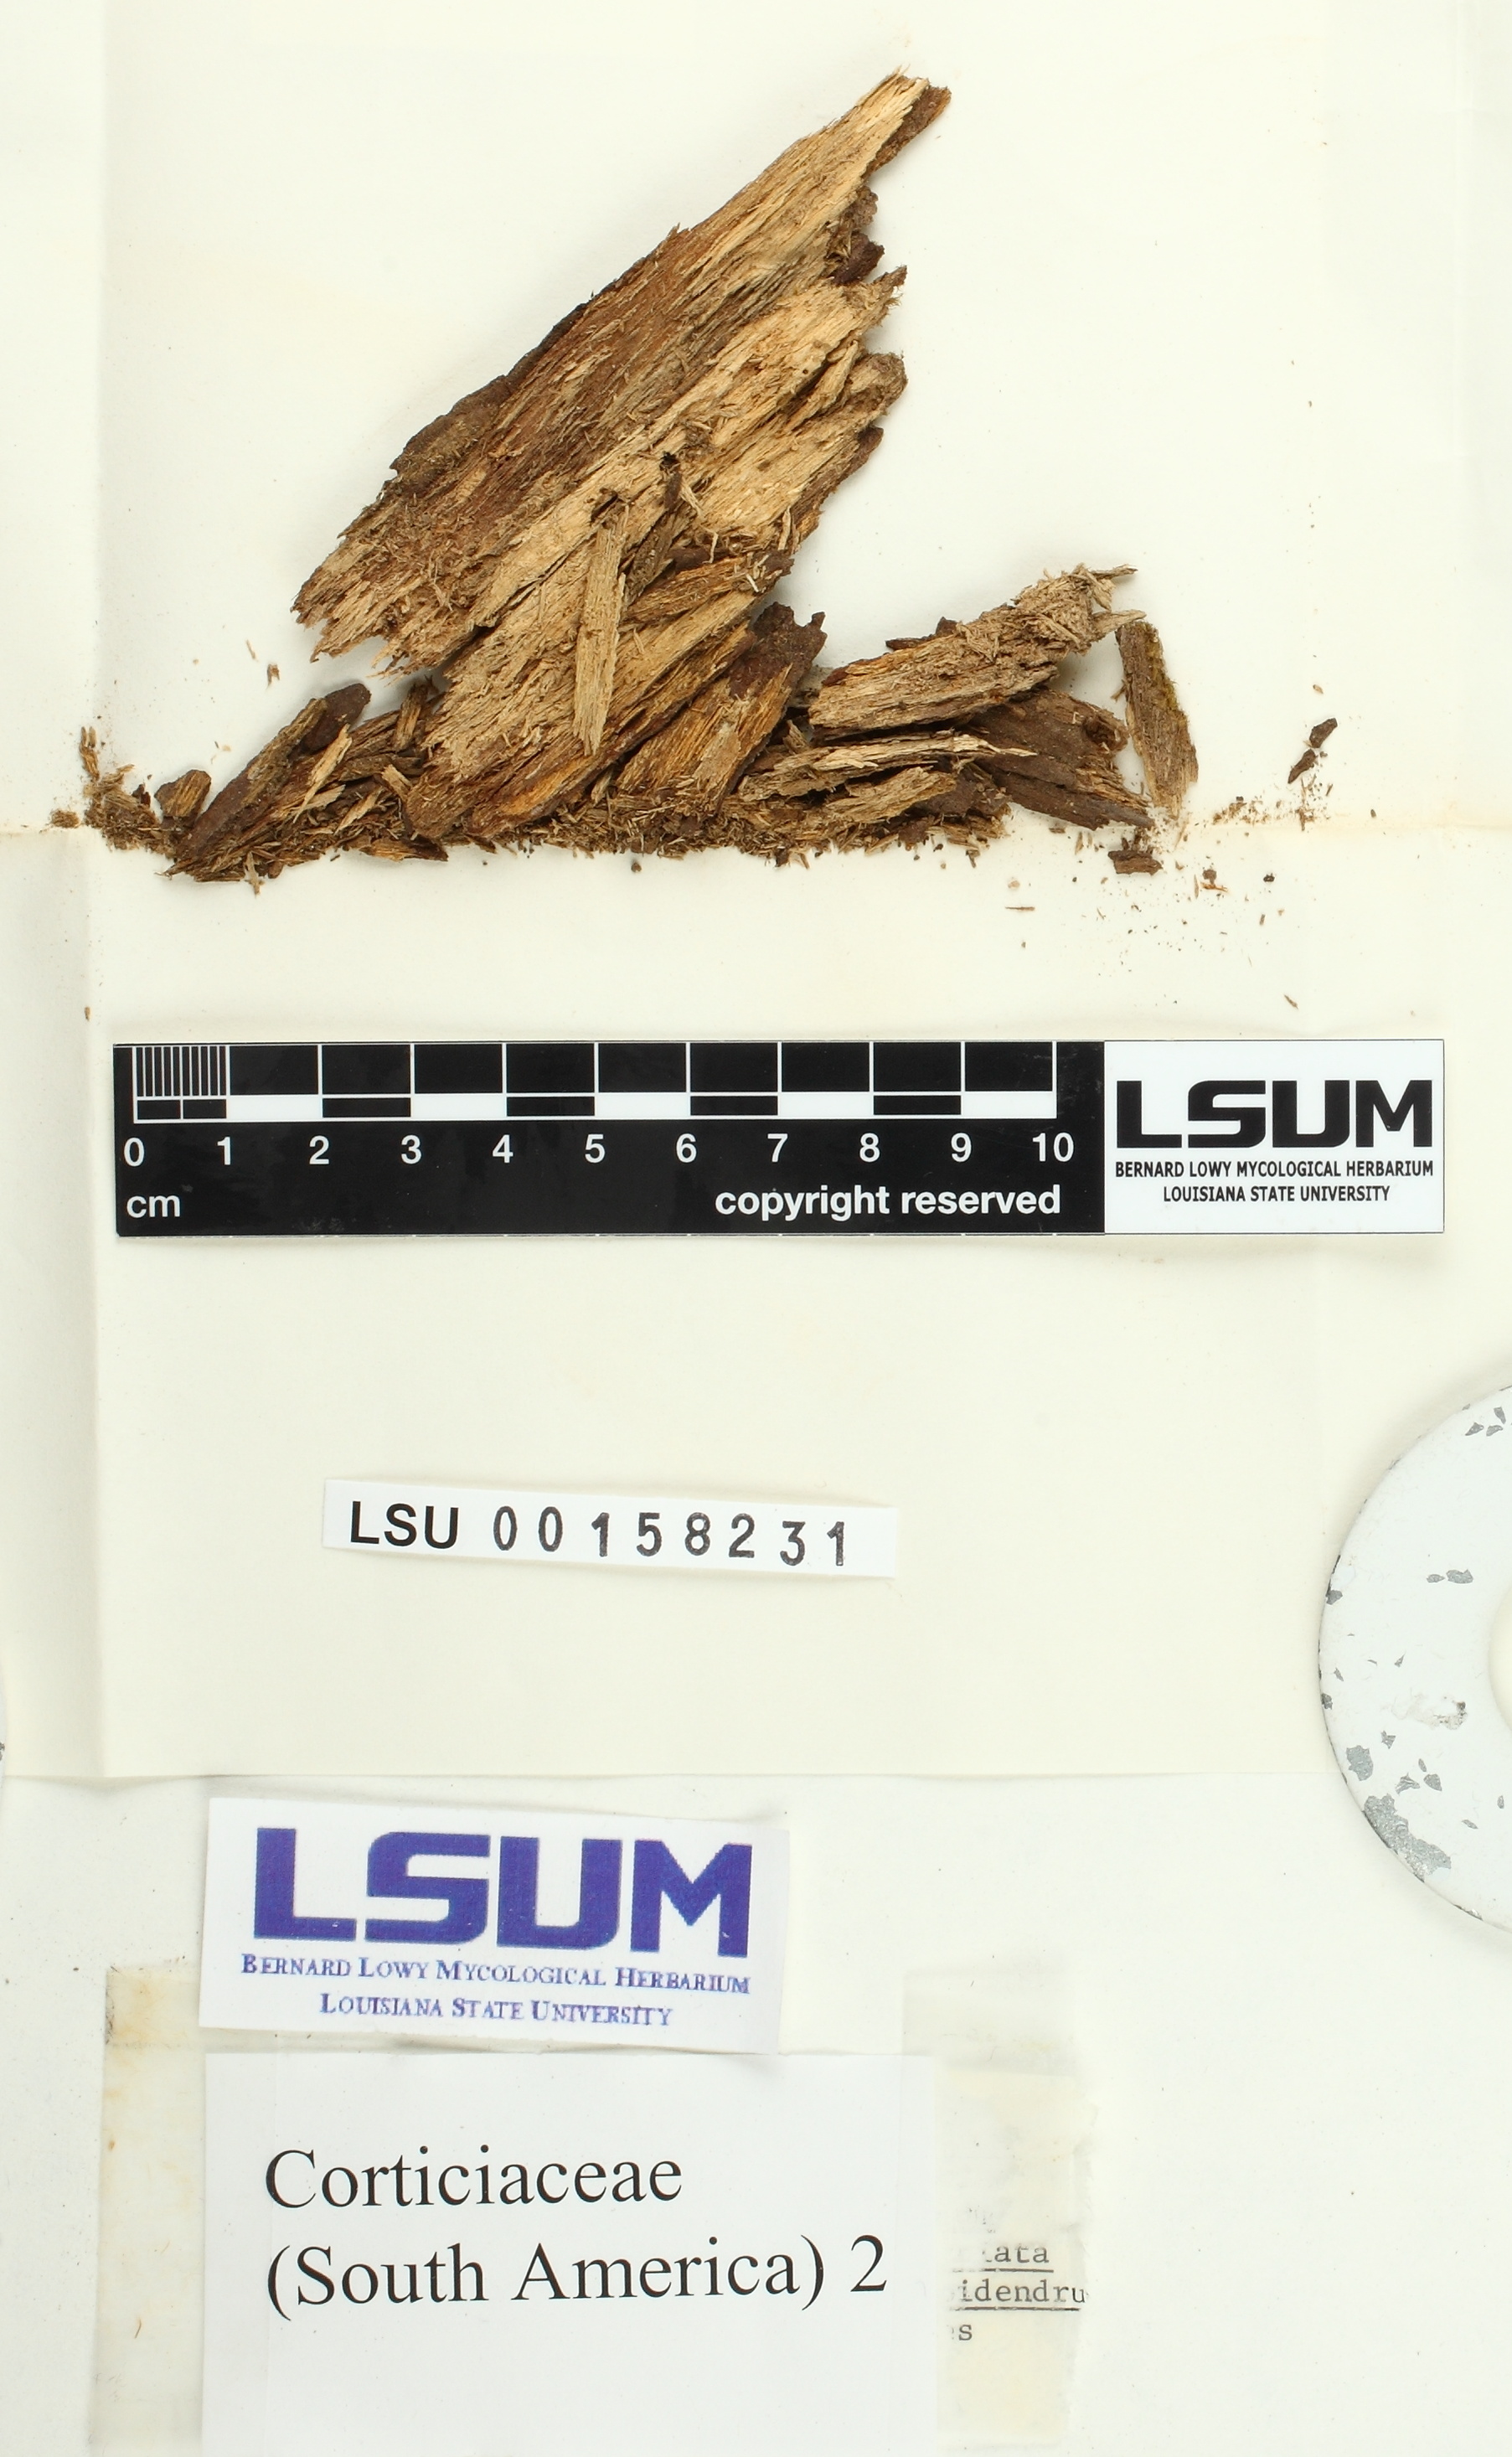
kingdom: Fungi
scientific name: Fungi
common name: Fungi
